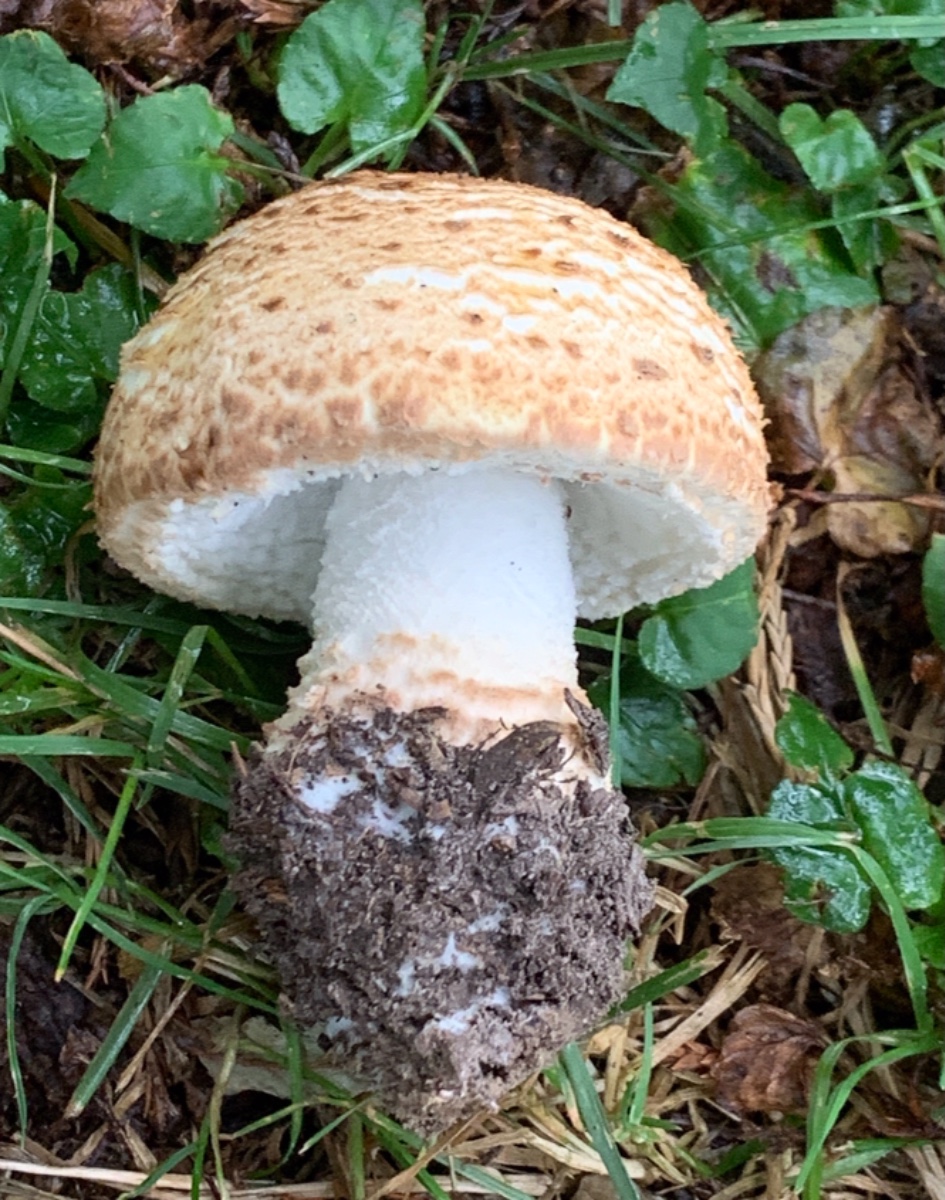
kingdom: Fungi
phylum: Basidiomycota
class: Agaricomycetes
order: Agaricales
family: Agaricaceae
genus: Agaricus
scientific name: Agaricus augustus
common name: prægtig champignon
